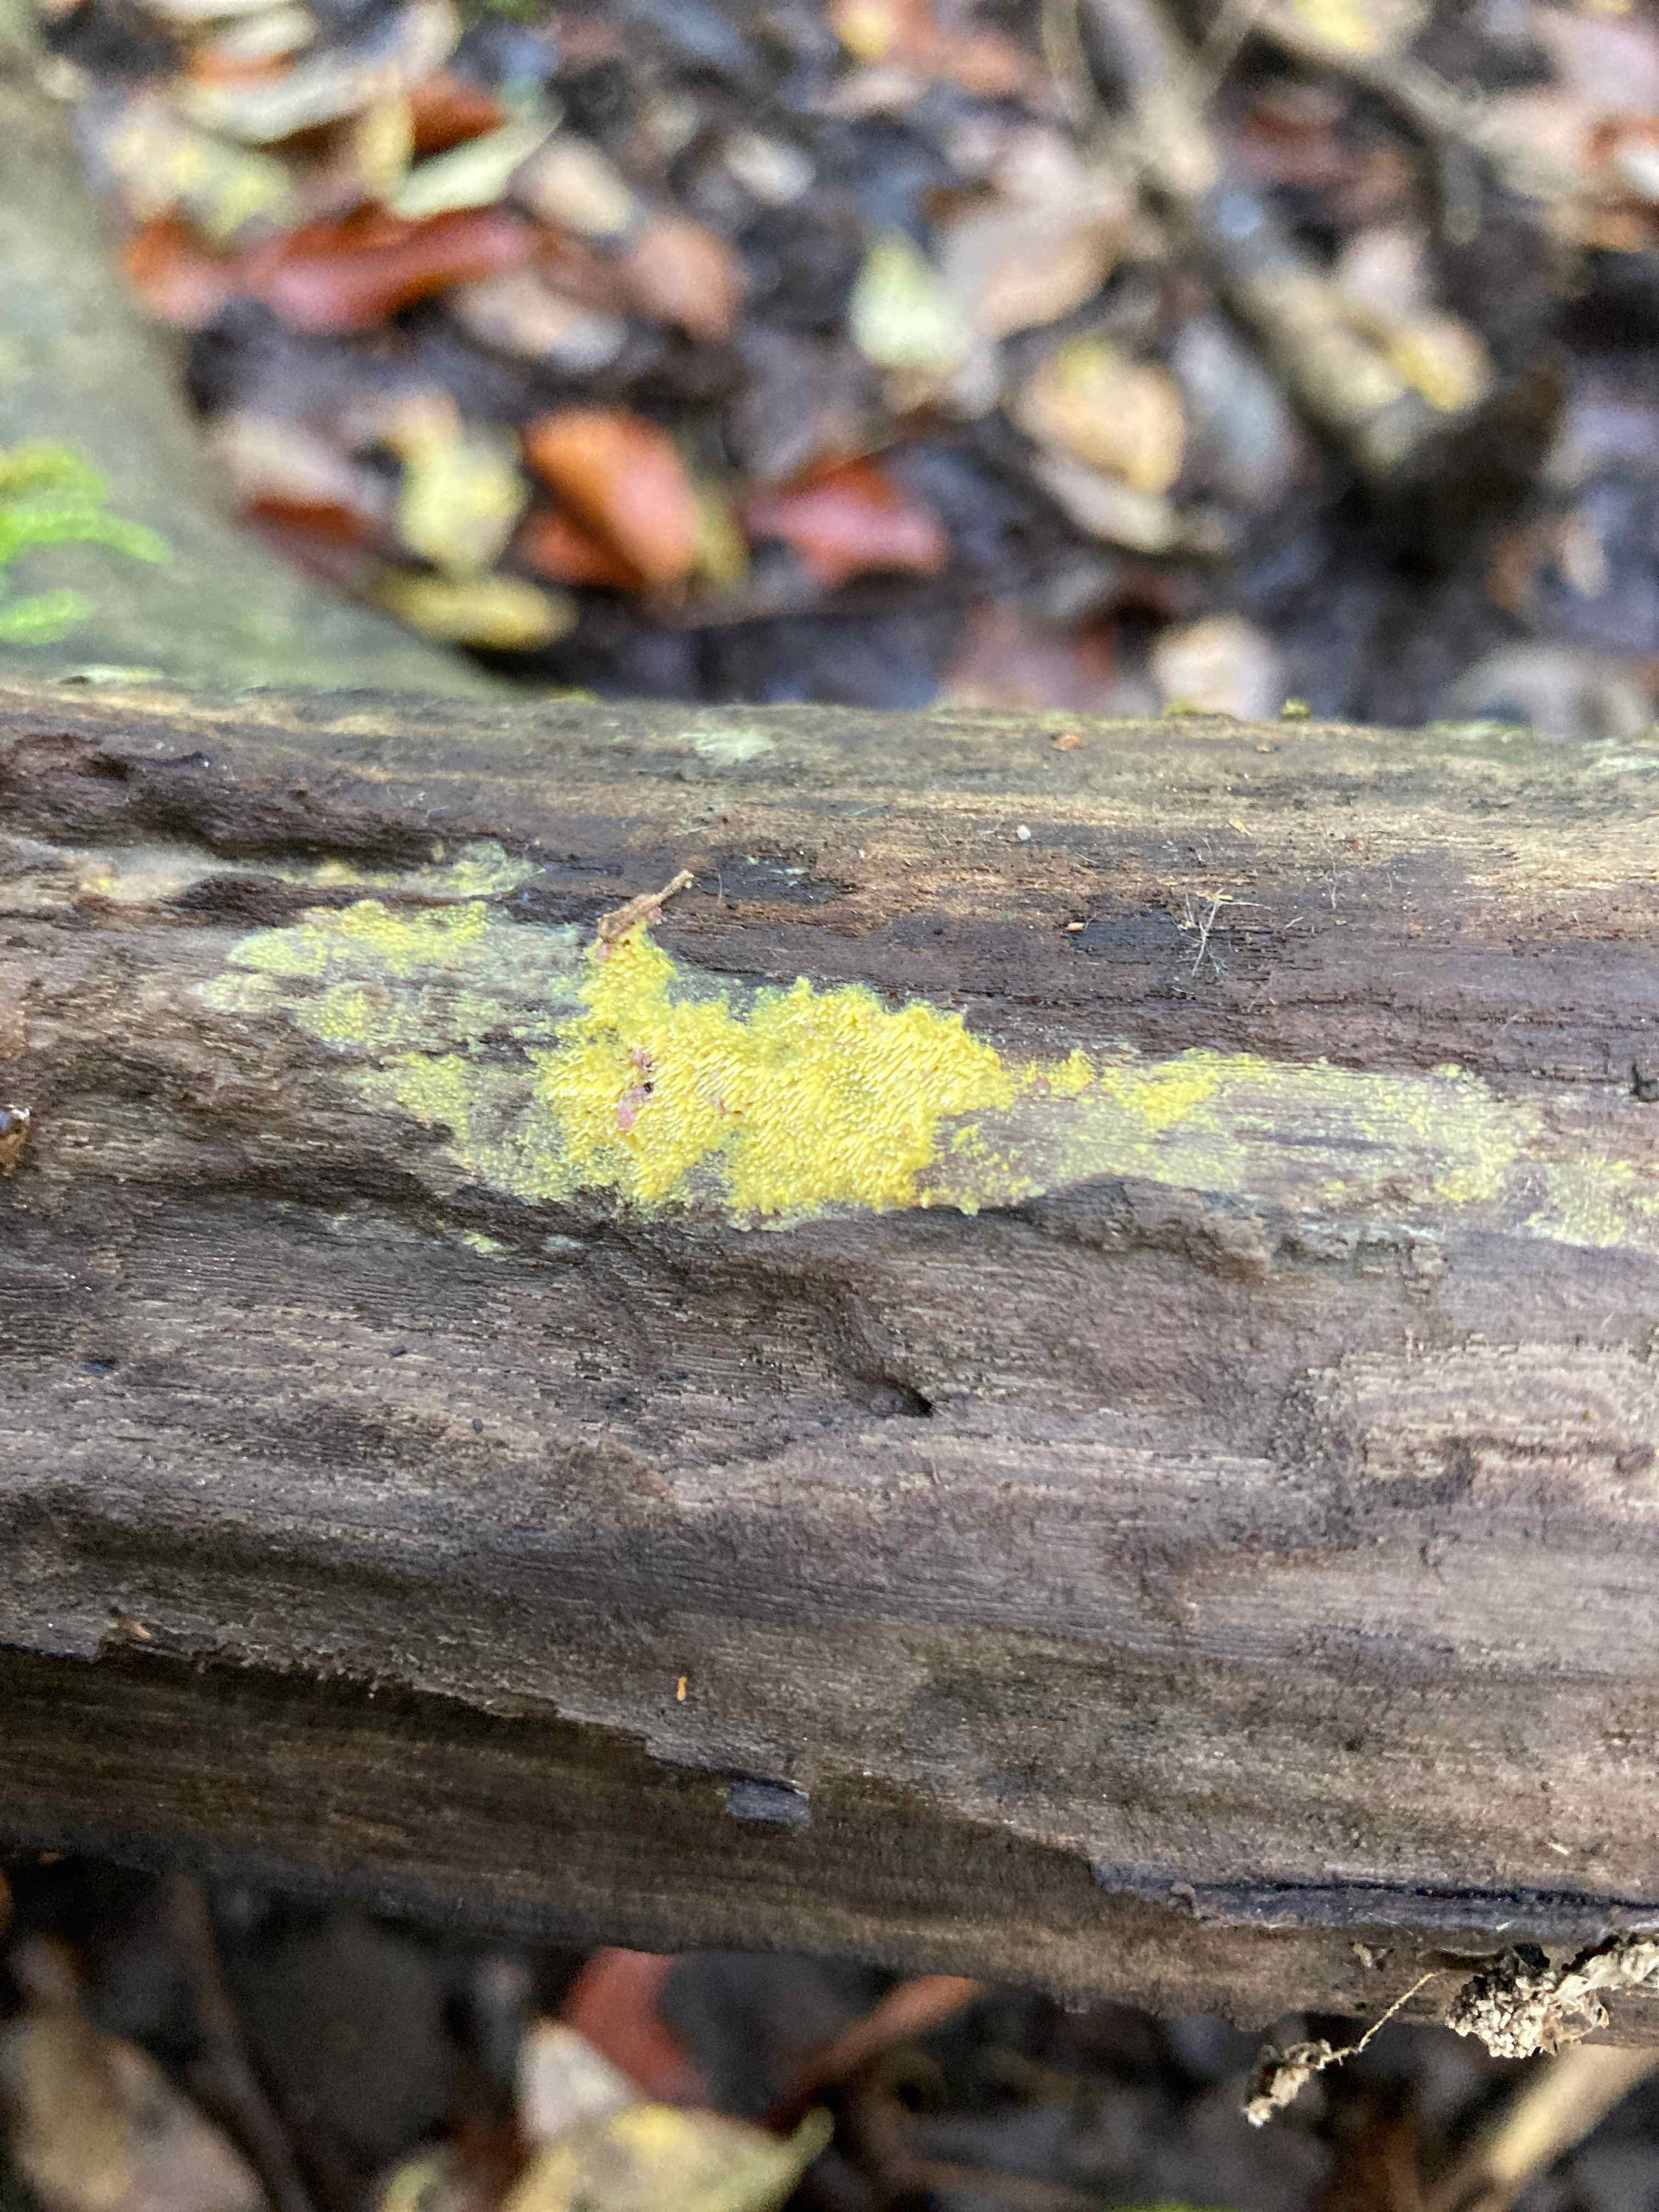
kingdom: Fungi
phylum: Basidiomycota
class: Agaricomycetes
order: Polyporales
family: Meruliaceae
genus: Mycoacia
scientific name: Mycoacia uda
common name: citrongul vokspig
